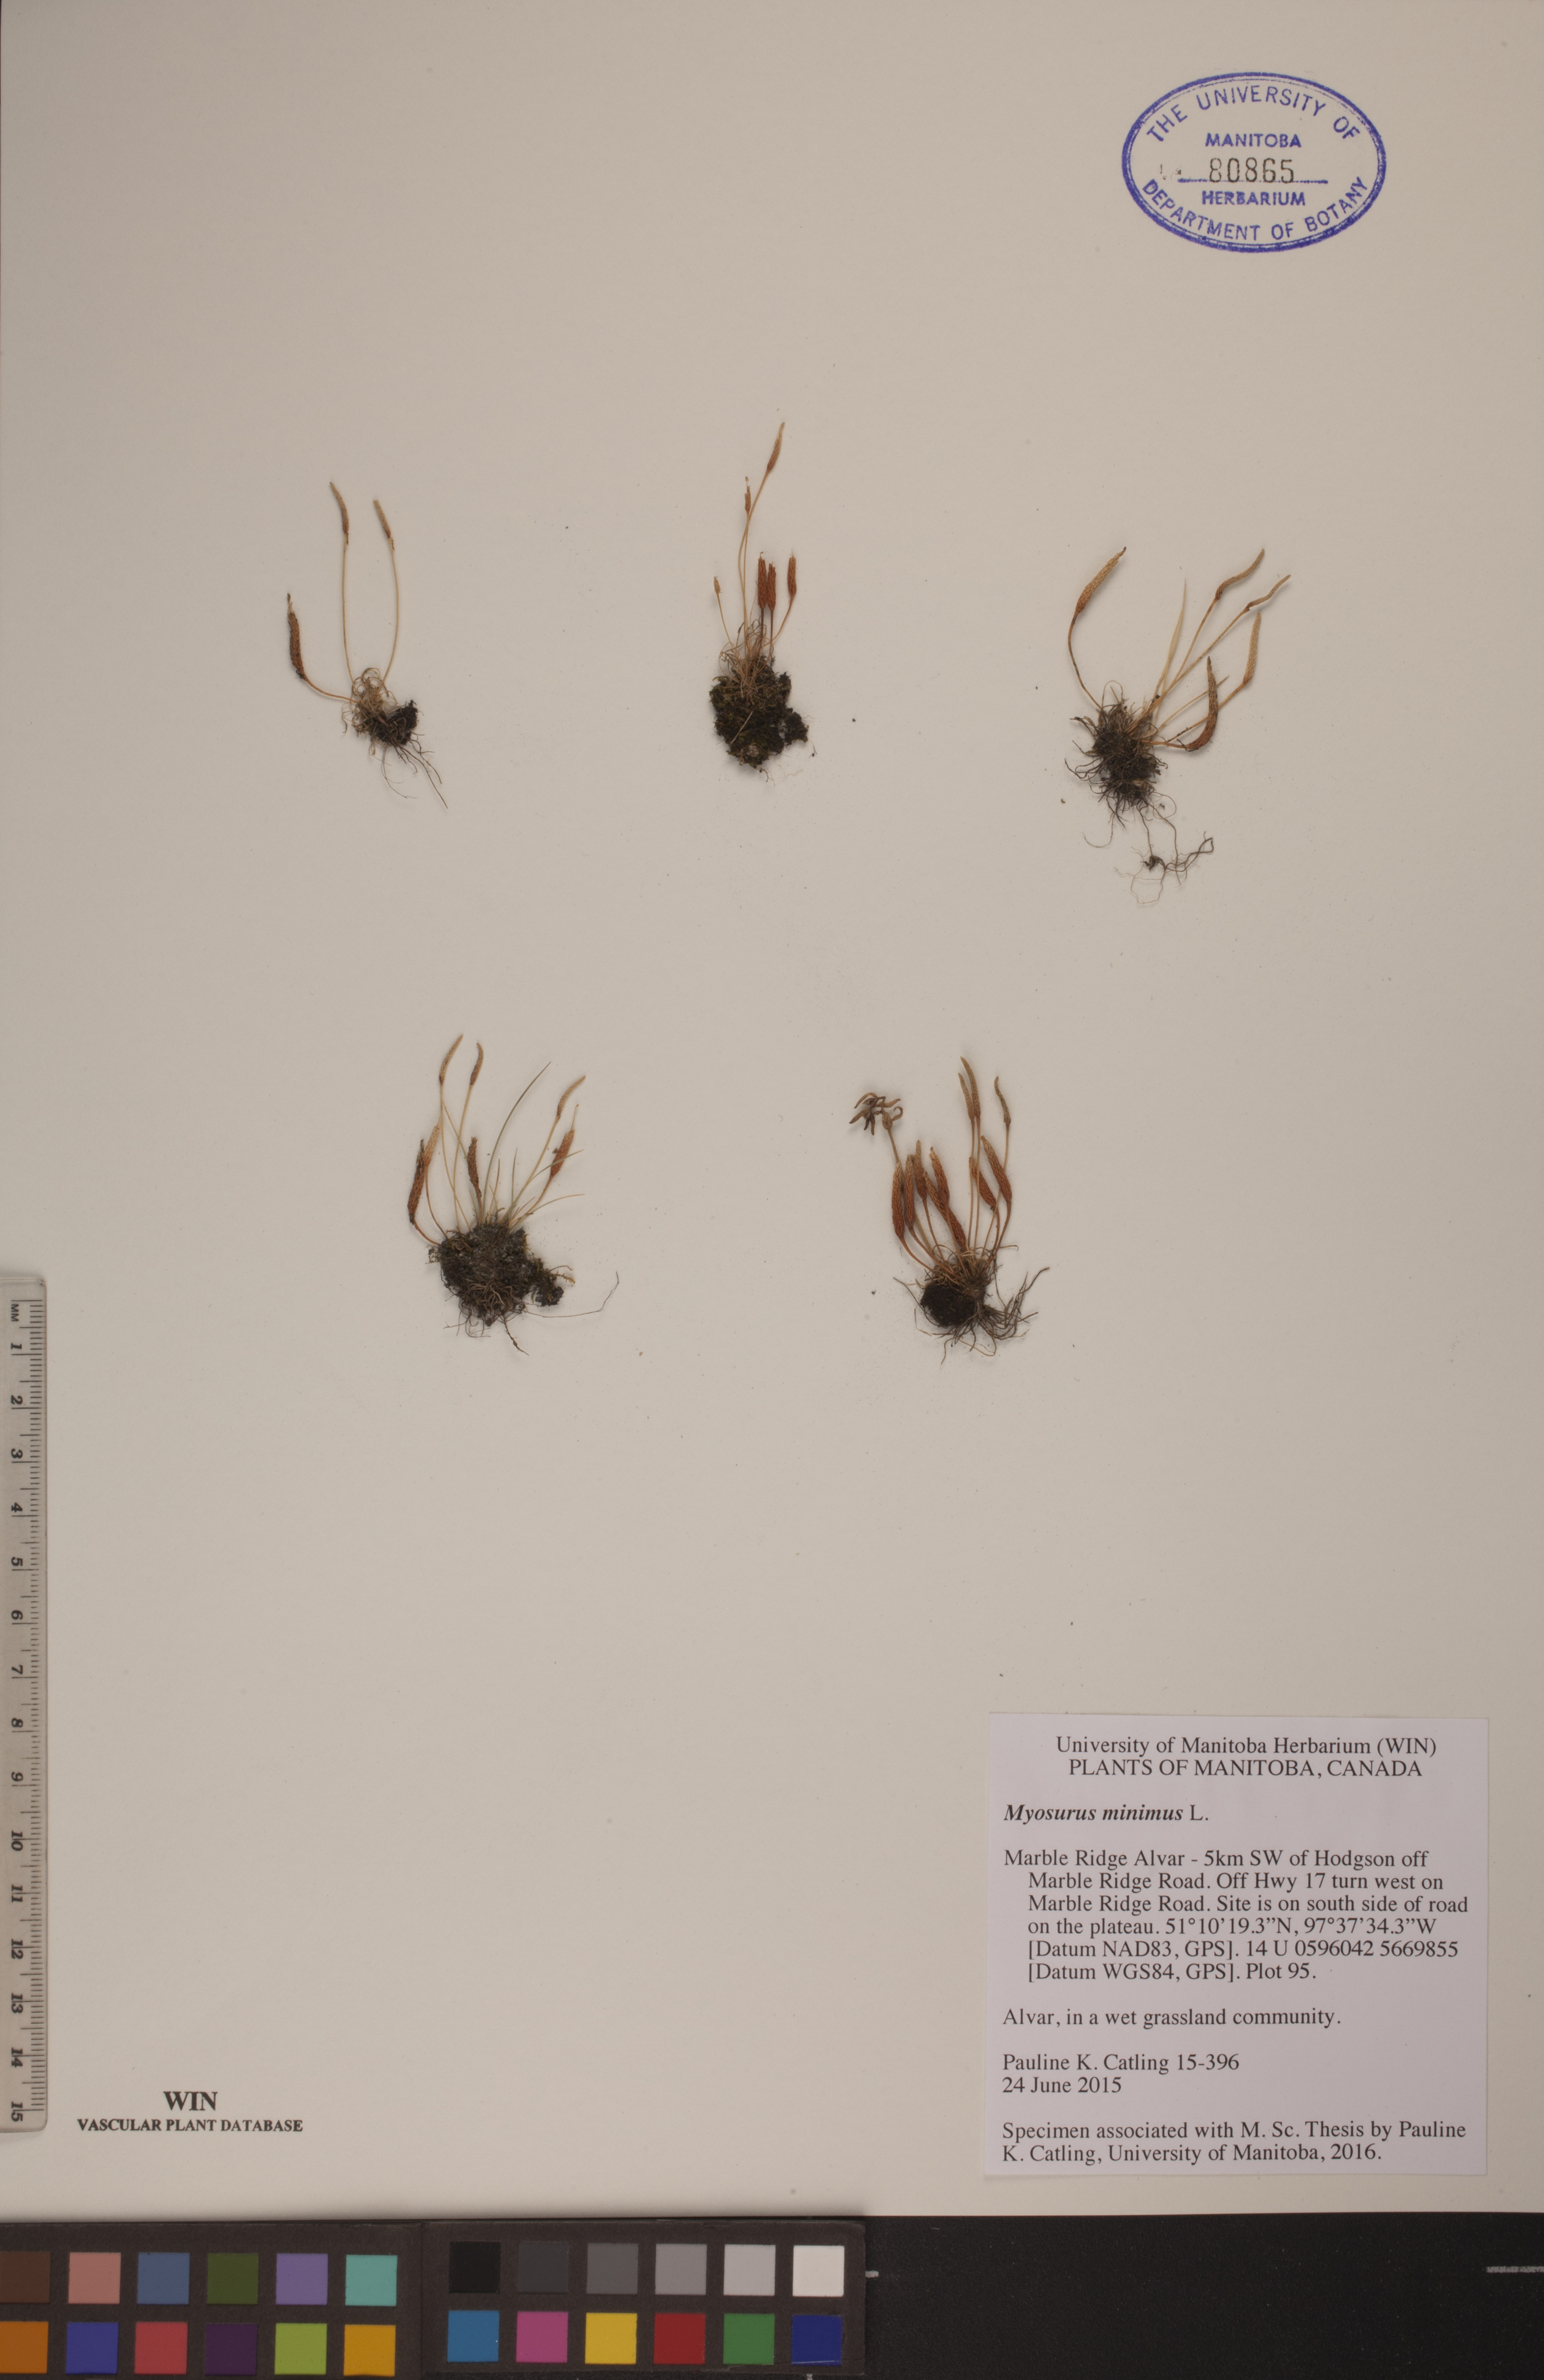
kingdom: Plantae
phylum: Tracheophyta
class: Magnoliopsida
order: Ranunculales
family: Ranunculaceae
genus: Myosurus
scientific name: Myosurus minimus
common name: Mousetail
